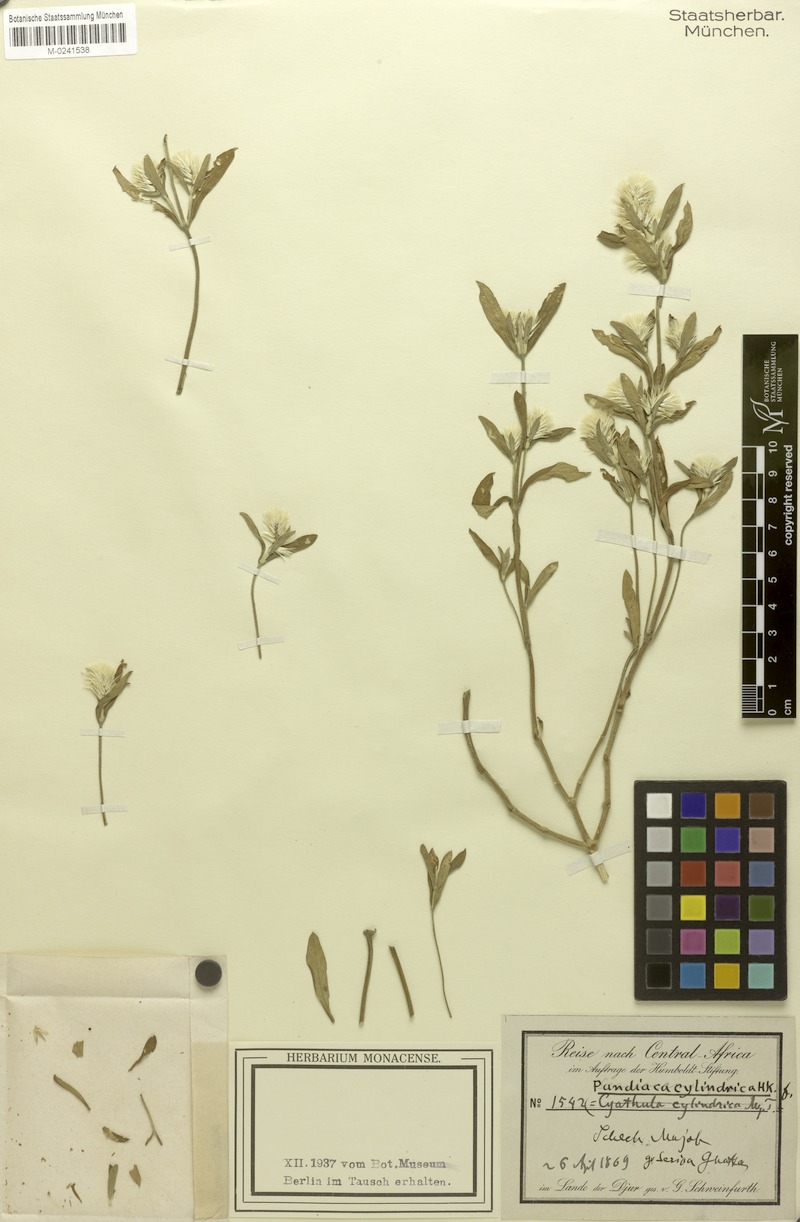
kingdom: Plantae
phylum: Tracheophyta
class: Magnoliopsida
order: Caryophyllales
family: Amaranthaceae
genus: Pandiaka
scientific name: Pandiaka elegantissima
